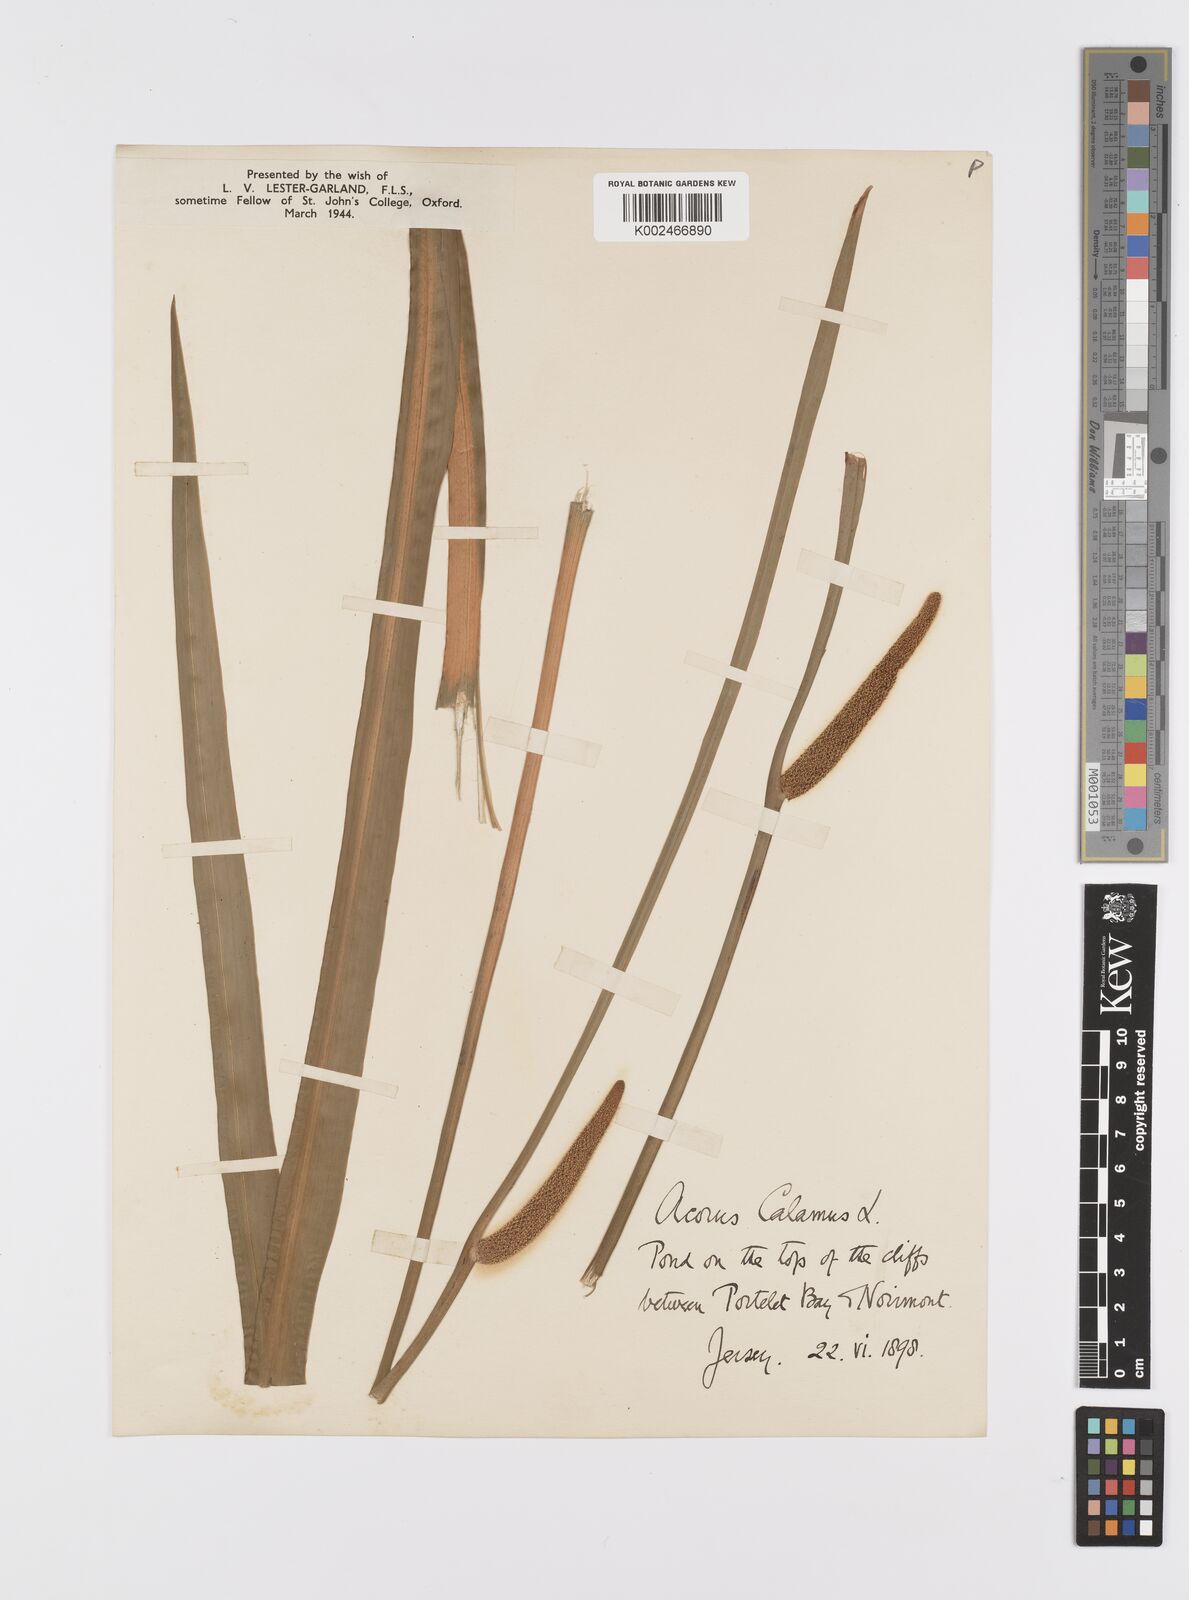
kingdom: Plantae
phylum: Tracheophyta
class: Liliopsida
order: Acorales
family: Acoraceae
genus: Acorus
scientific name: Acorus calamus
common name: Sweet-flag
